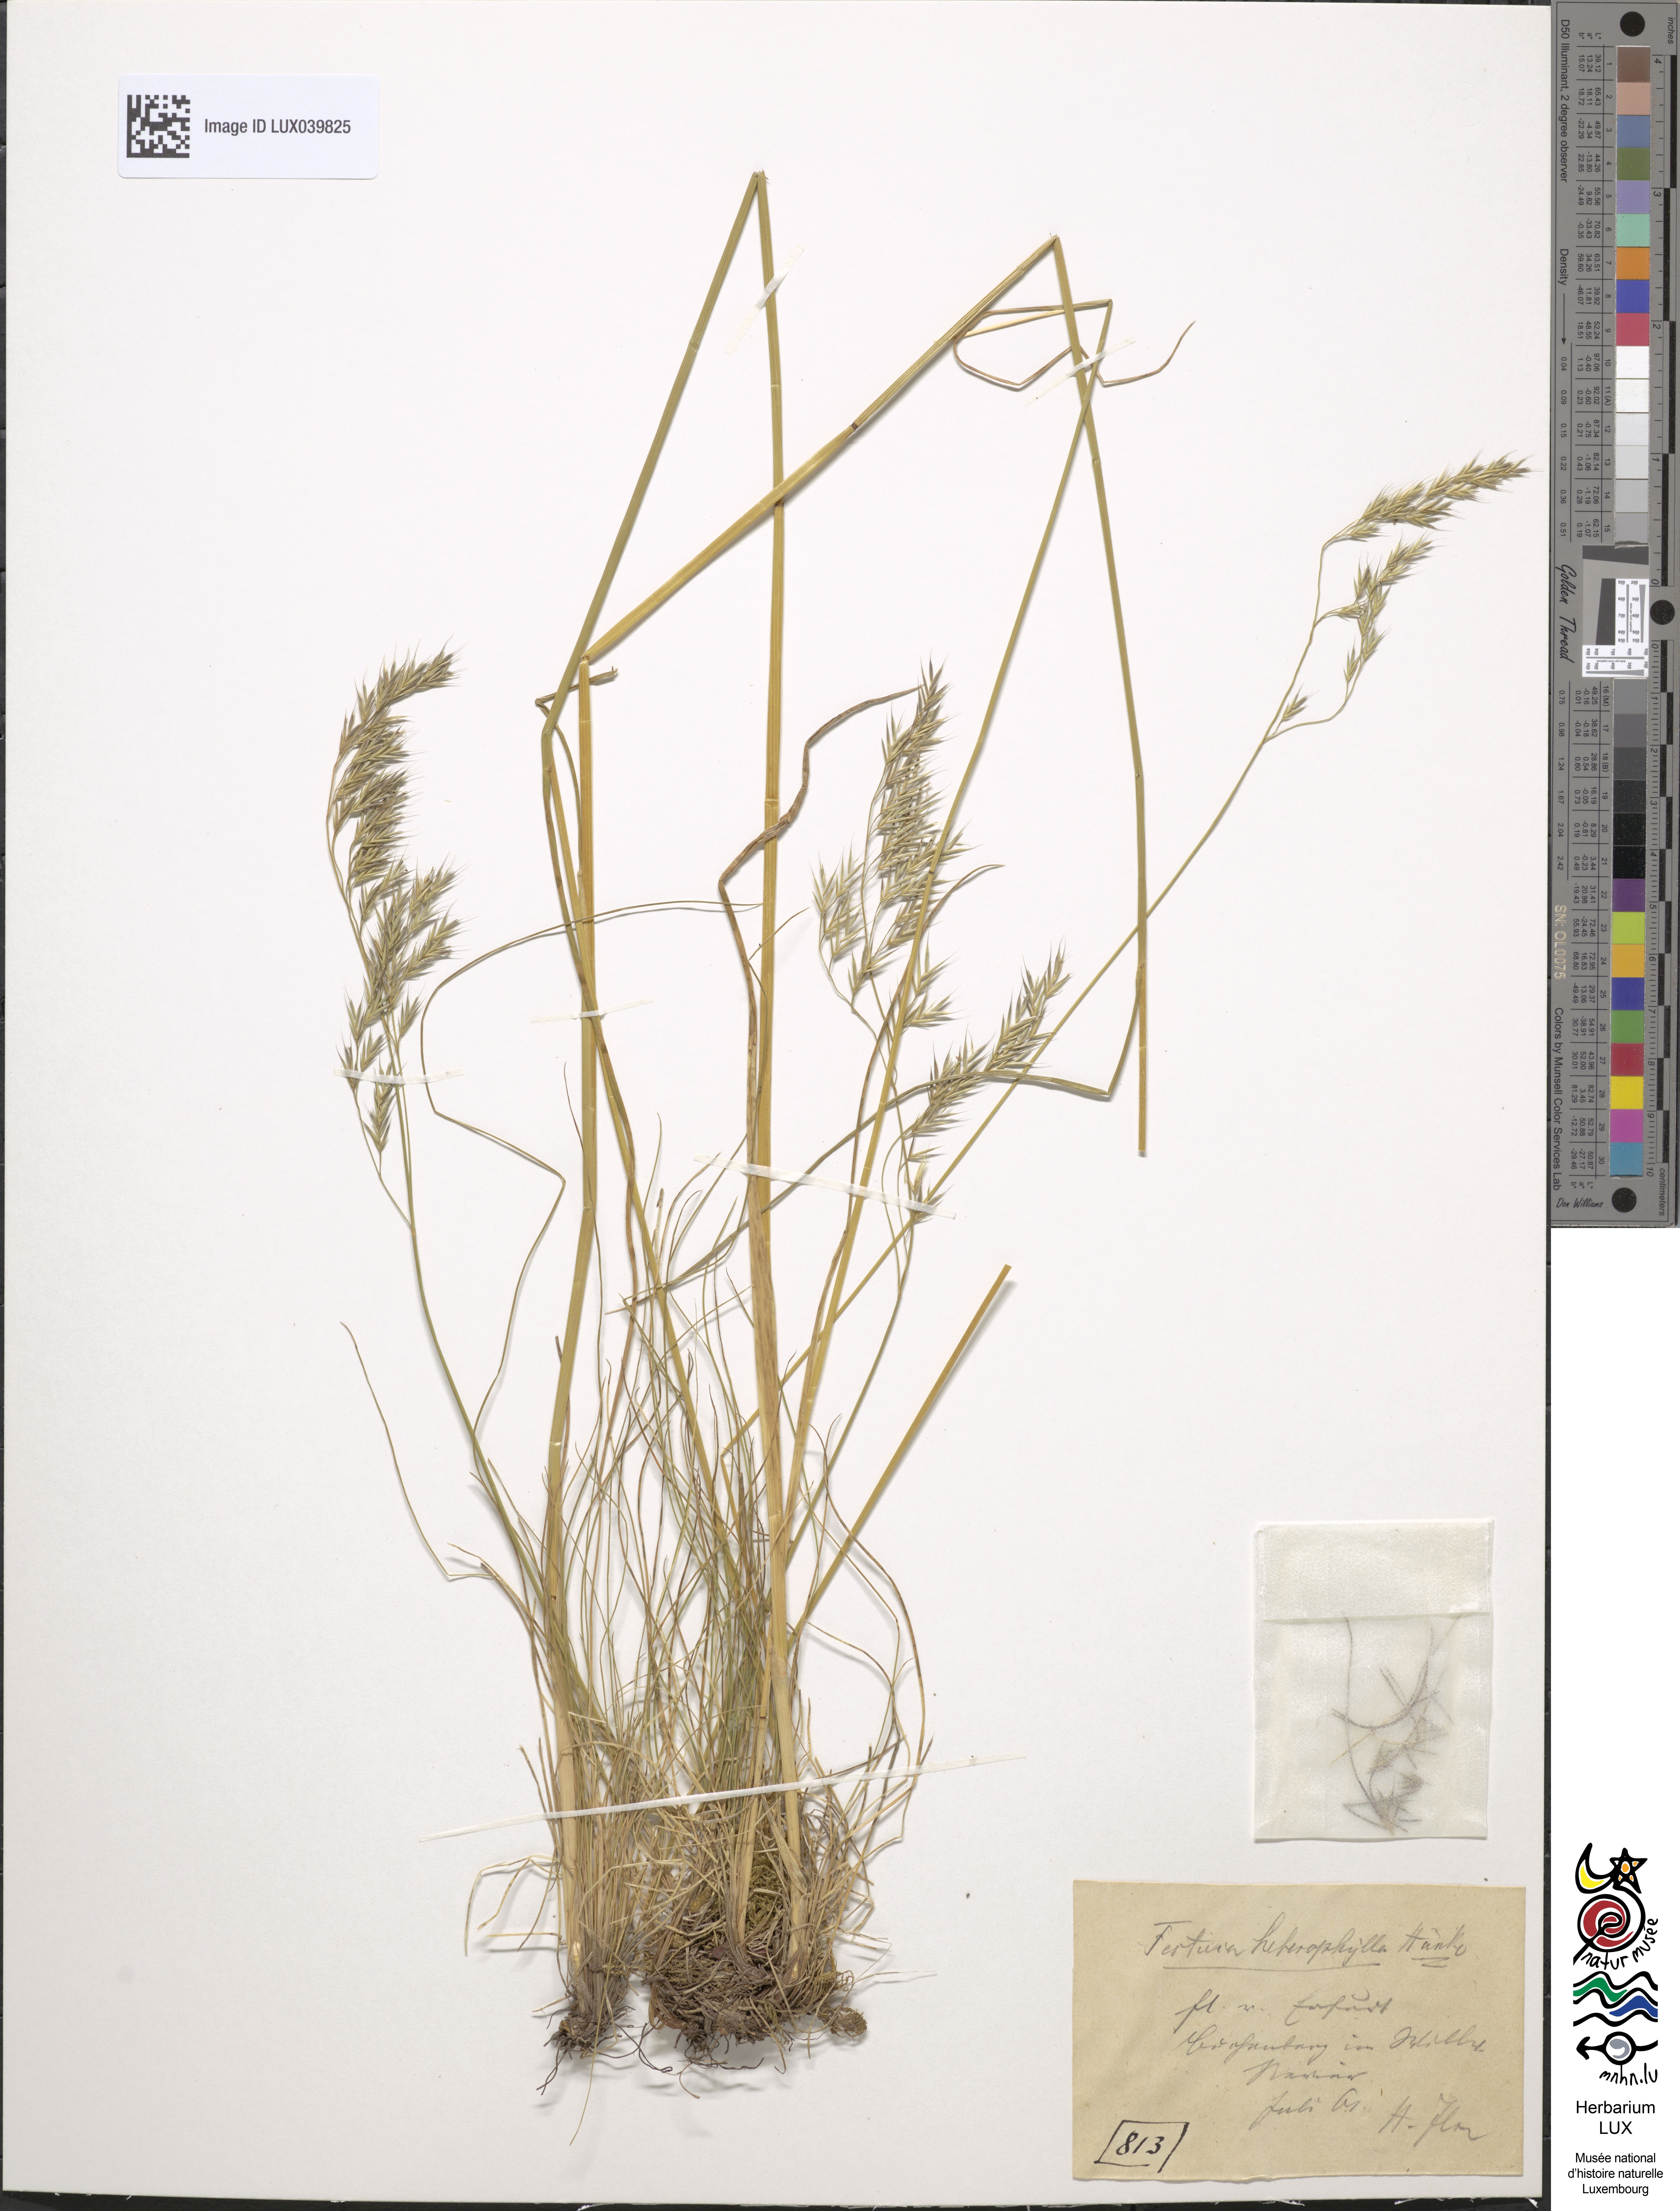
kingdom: Plantae
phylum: Tracheophyta
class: Liliopsida
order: Poales
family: Poaceae
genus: Festuca
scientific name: Festuca rubra
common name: Red fescue
